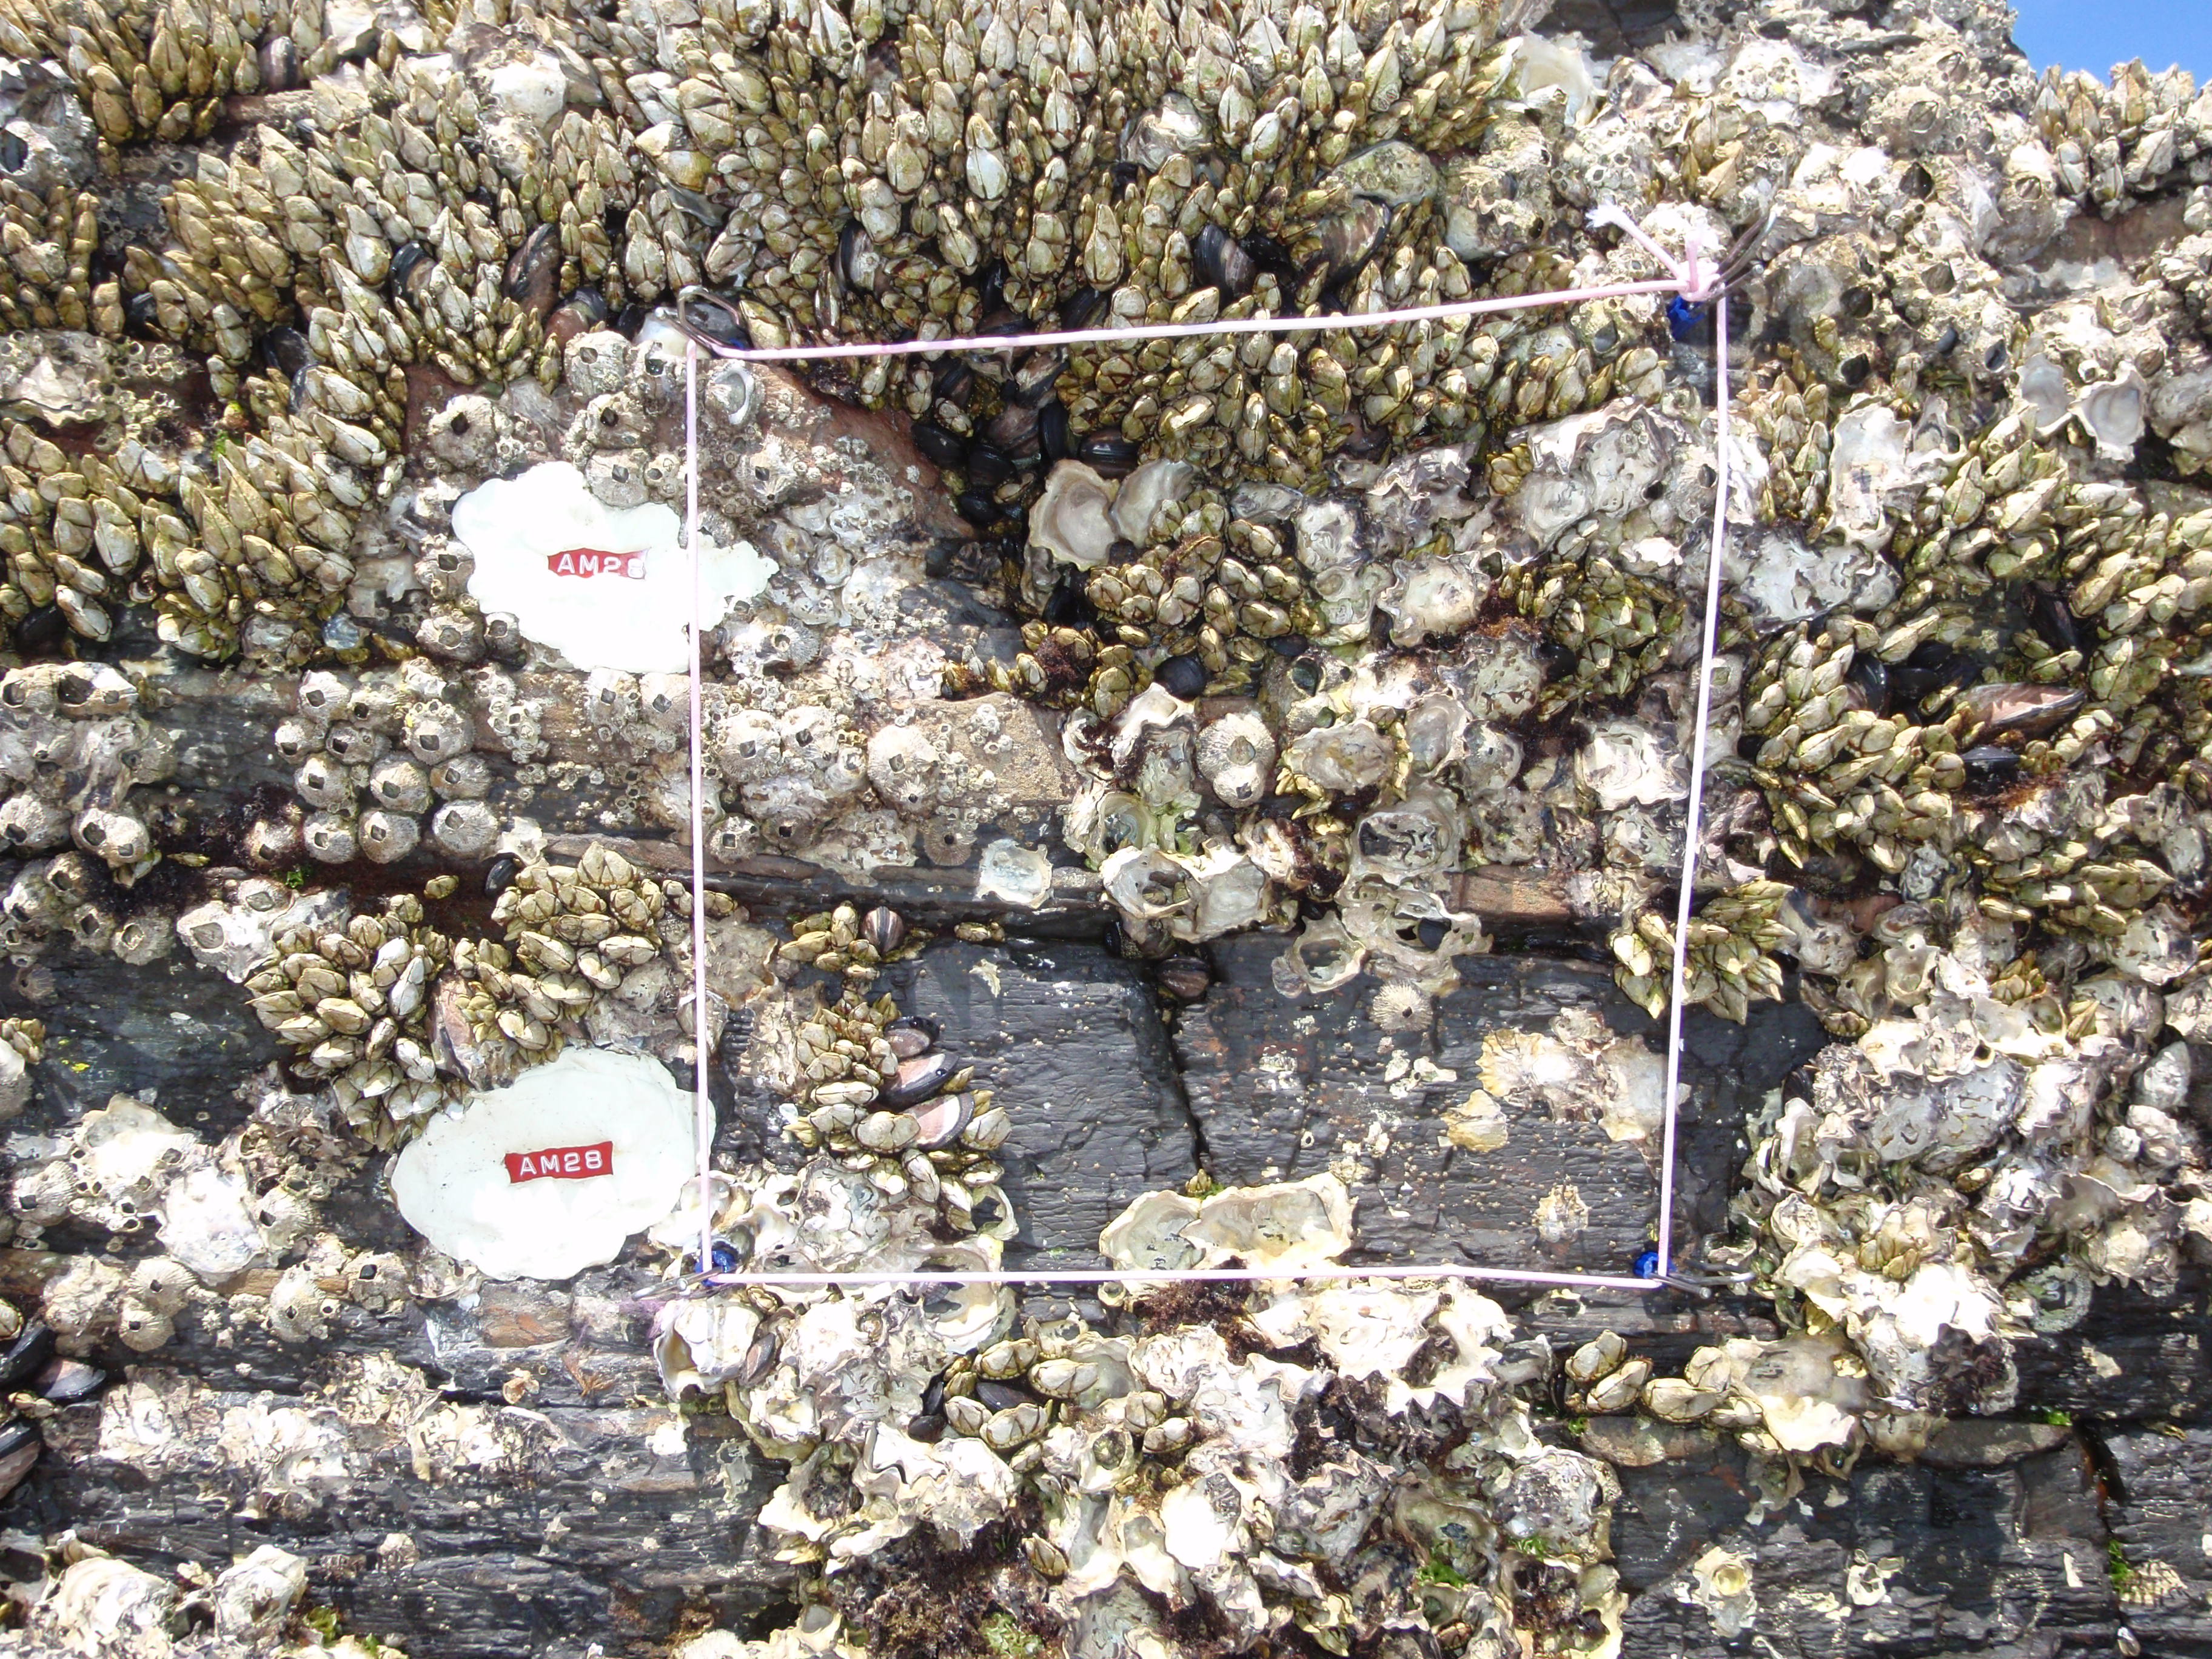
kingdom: Animalia
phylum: Arthropoda
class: Maxillopoda
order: Sessilia
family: Chthamalidae
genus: Chthamalus
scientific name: Chthamalus challengeri
